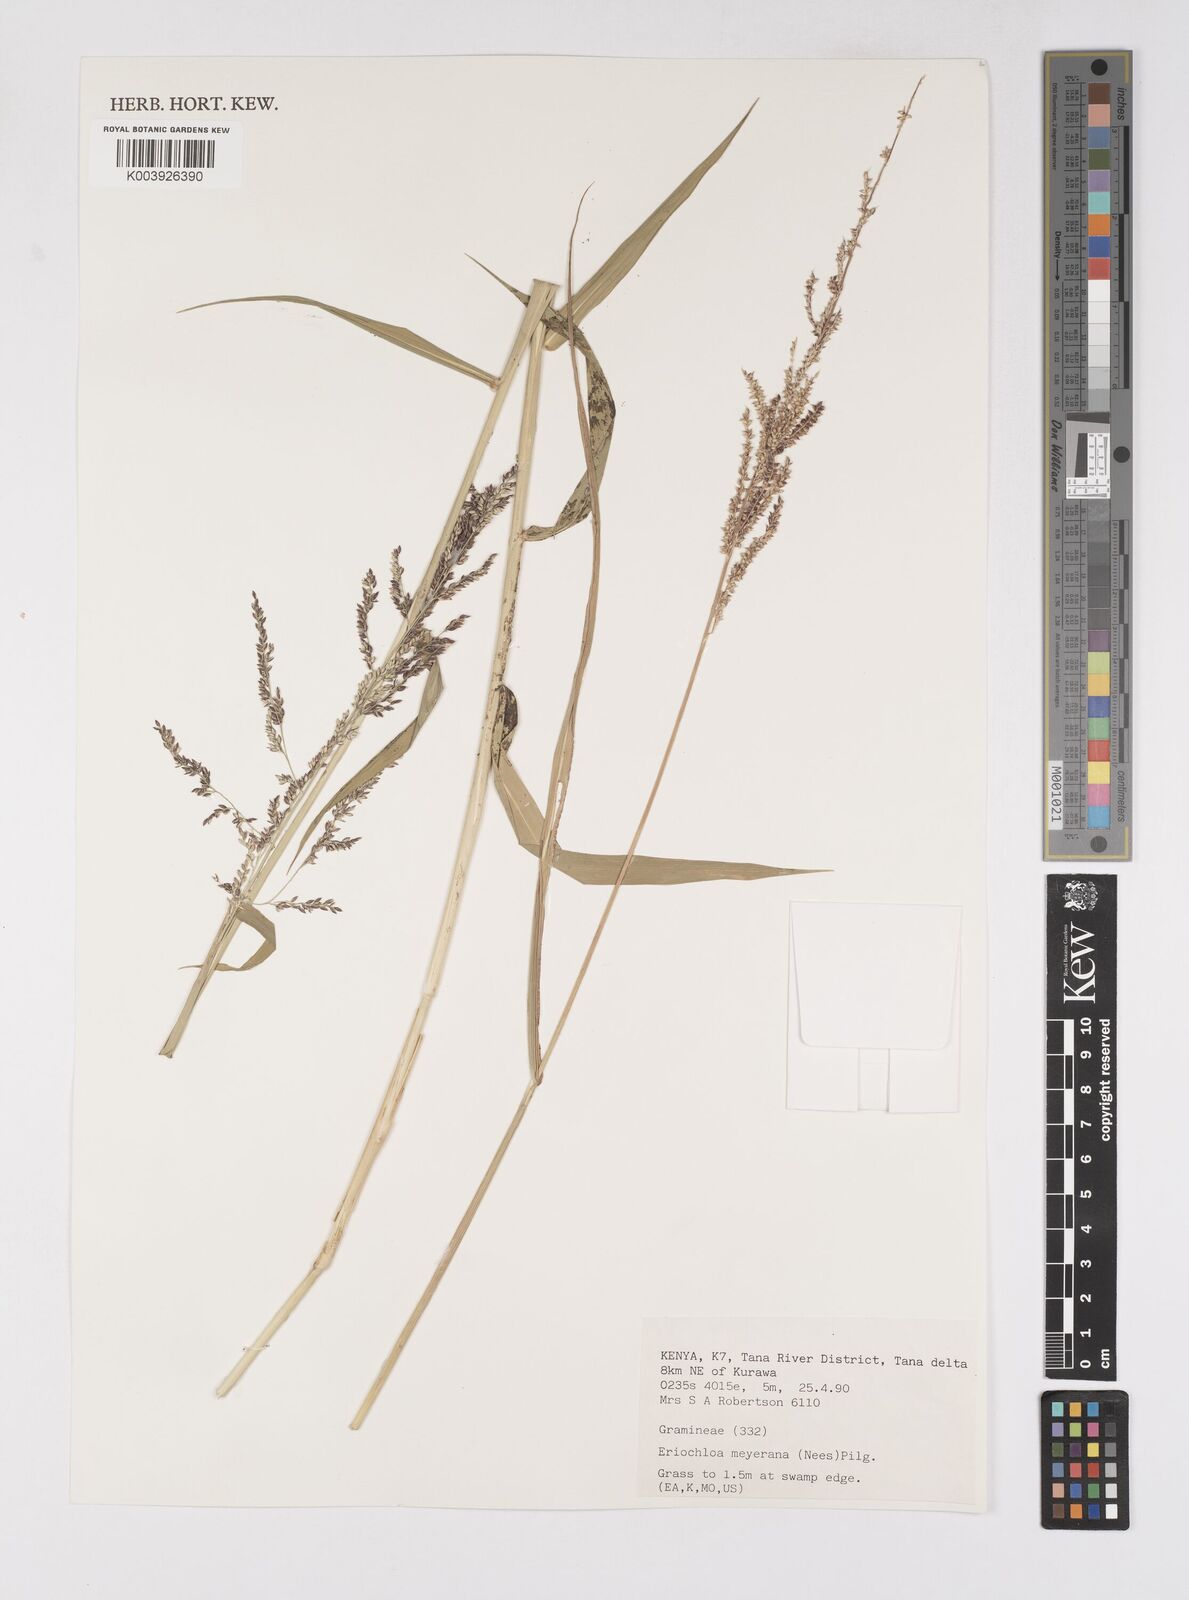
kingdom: Plantae
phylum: Tracheophyta
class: Liliopsida
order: Poales
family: Poaceae
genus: Eriochloa
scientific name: Eriochloa meyeriana
